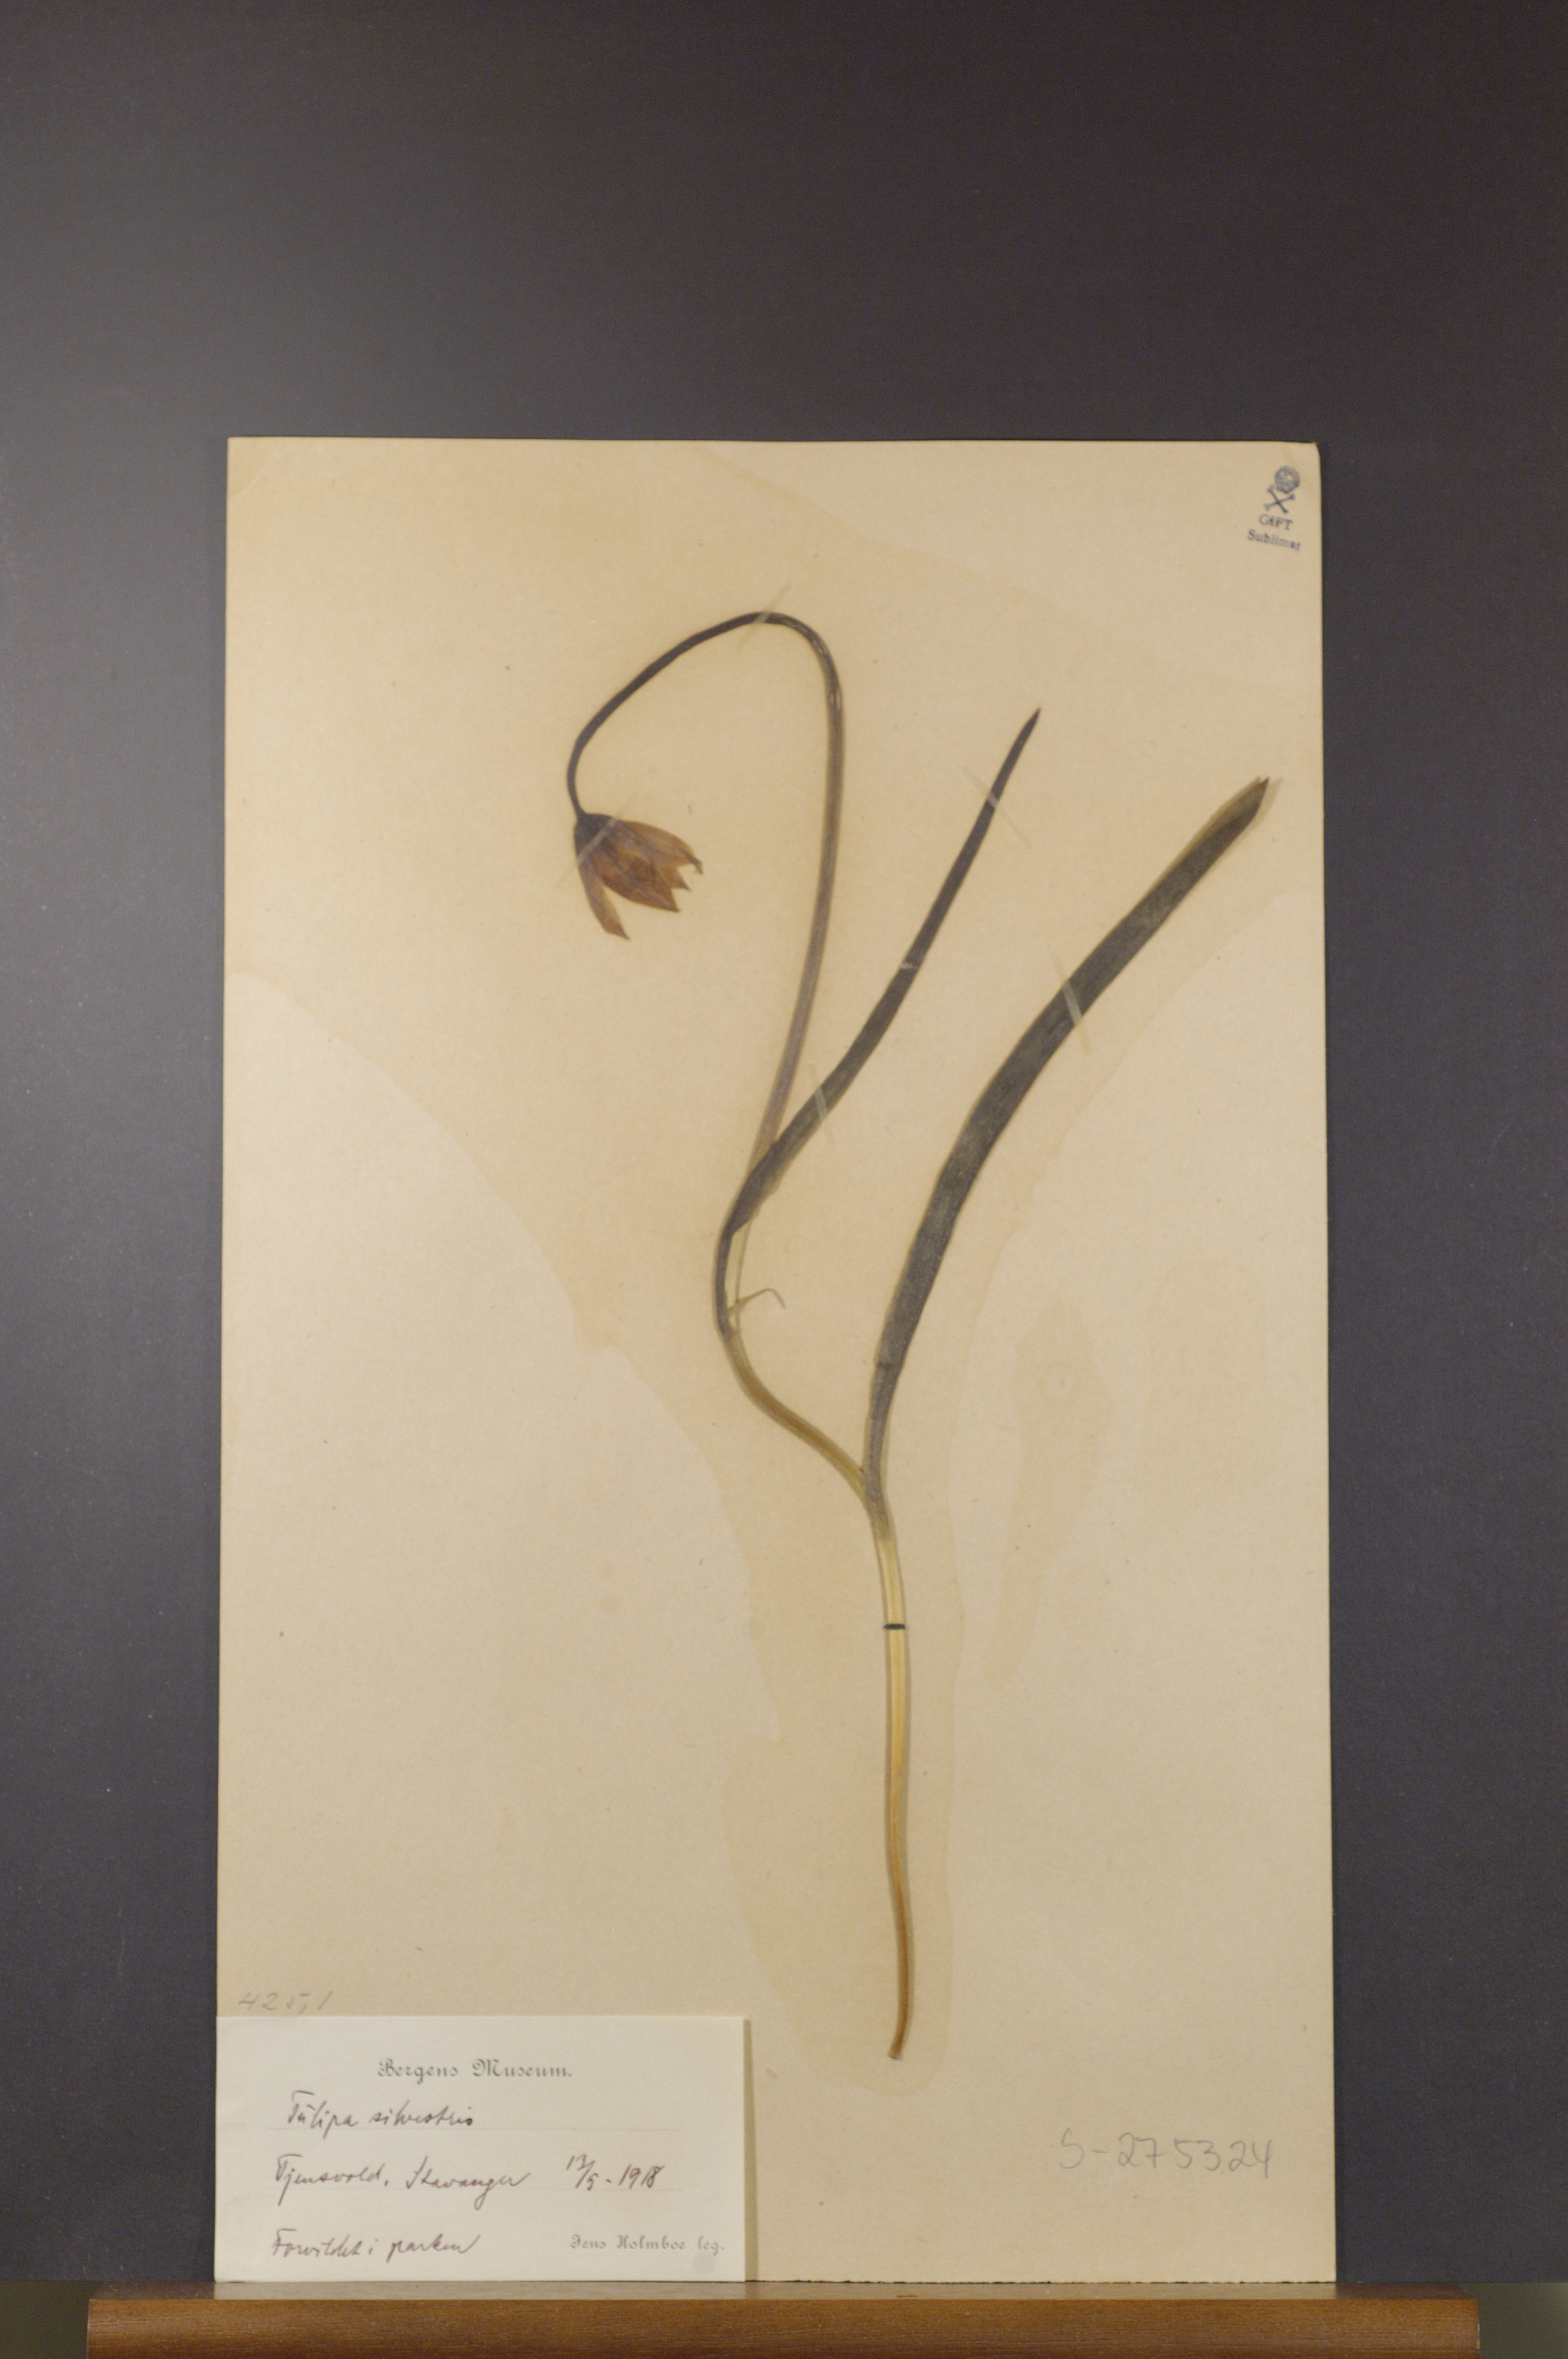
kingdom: Plantae
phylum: Tracheophyta
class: Liliopsida
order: Liliales
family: Liliaceae
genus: Tulipa
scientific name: Tulipa sylvestris
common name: Wild tulip
